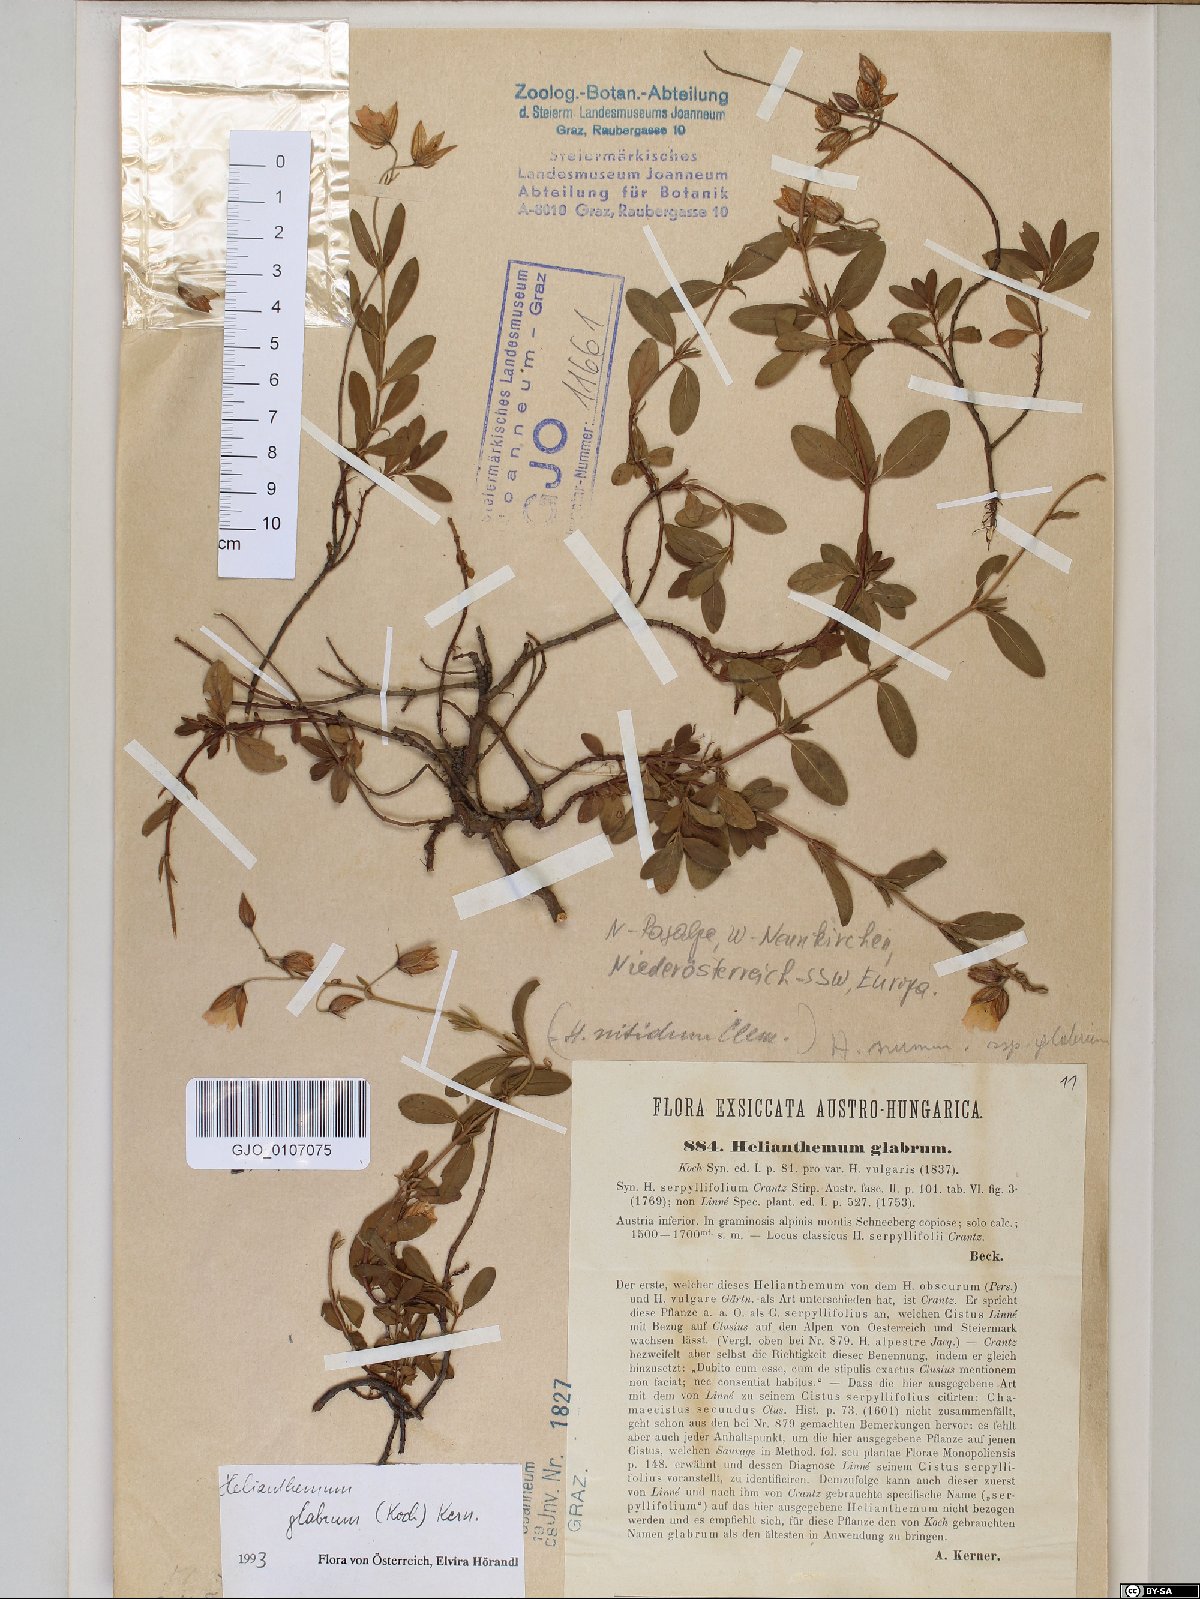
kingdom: Plantae
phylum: Tracheophyta
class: Magnoliopsida
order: Malvales
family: Cistaceae
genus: Helianthemum
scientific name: Helianthemum nummularium
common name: Common rock-rose
